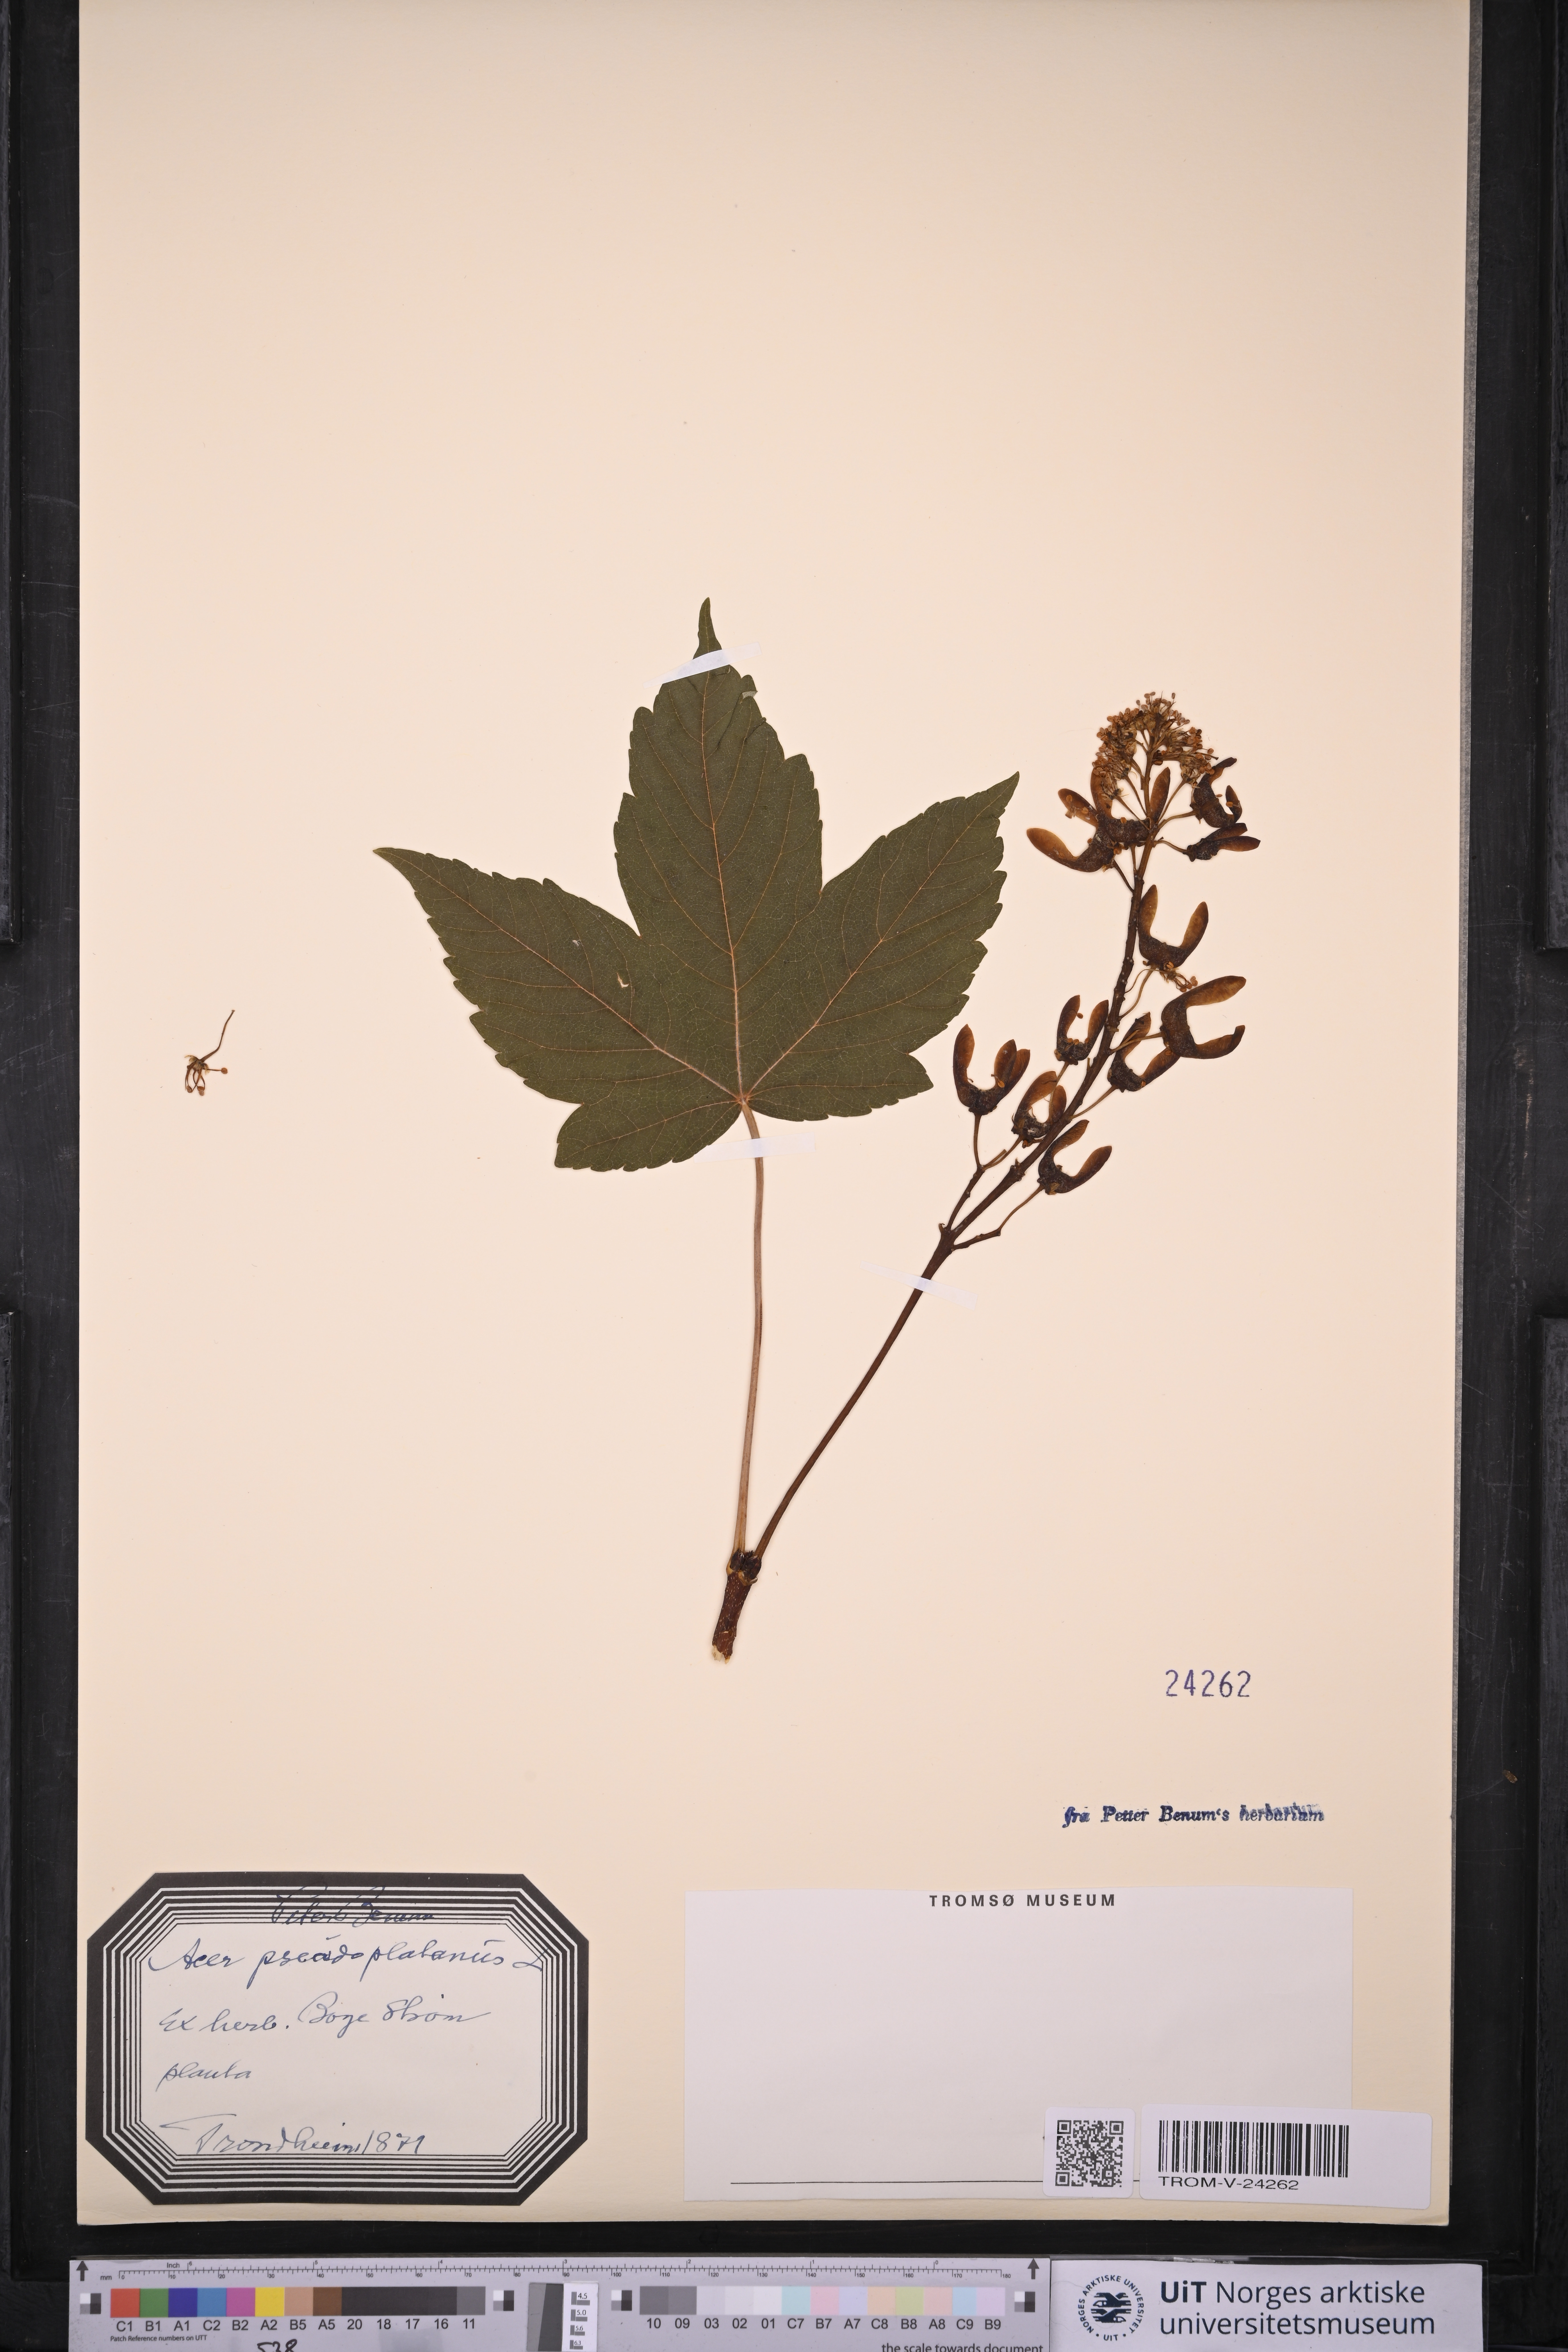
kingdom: Plantae
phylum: Tracheophyta
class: Magnoliopsida
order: Sapindales
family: Sapindaceae
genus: Acer
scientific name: Acer pseudoplatanus
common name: Sycamore
